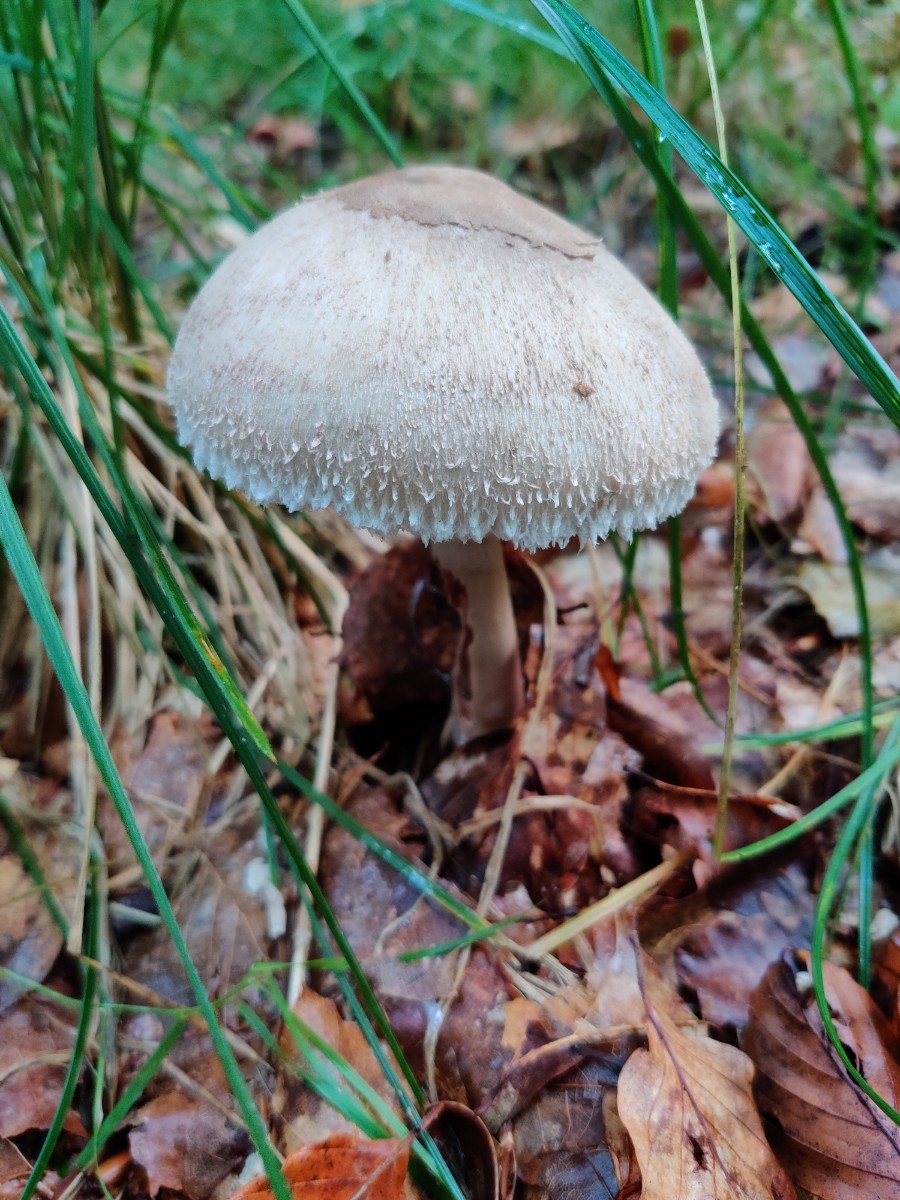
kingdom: Fungi
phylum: Basidiomycota
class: Agaricomycetes
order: Agaricales
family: Agaricaceae
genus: Macrolepiota
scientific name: Macrolepiota mastoidea
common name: puklet kæmpeparasolhat
